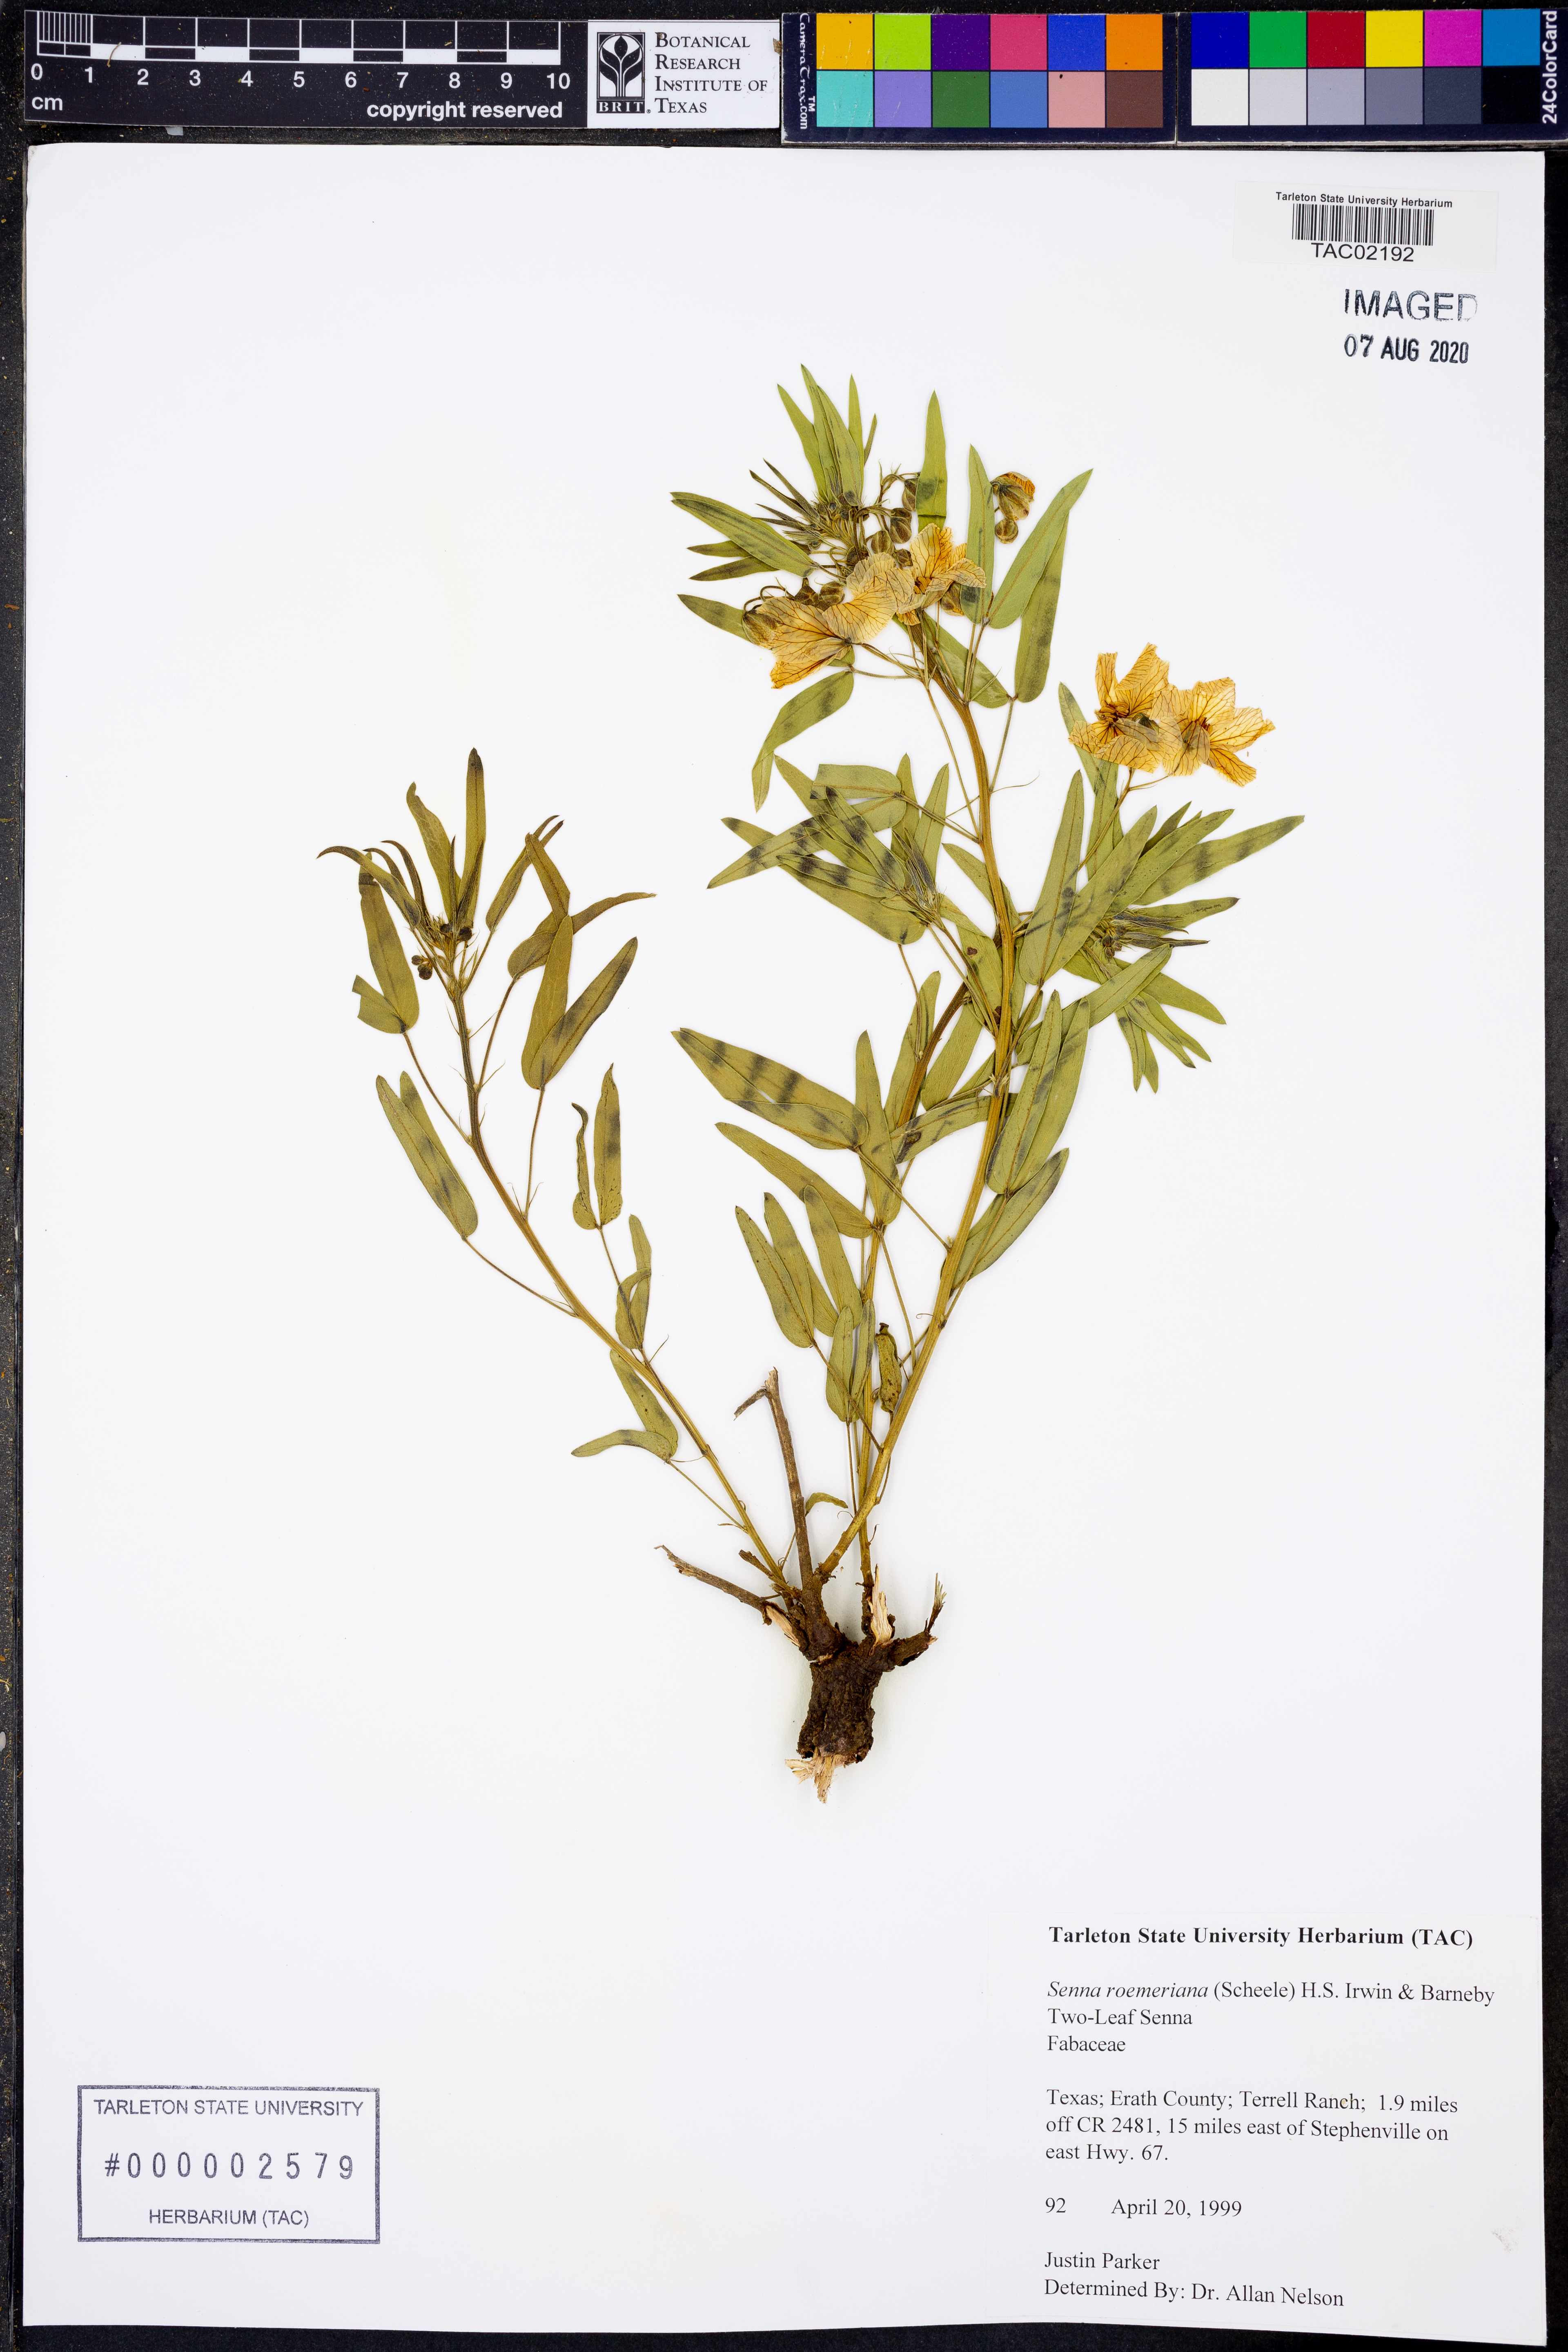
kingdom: Plantae
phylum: Tracheophyta
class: Magnoliopsida
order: Fabales
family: Fabaceae
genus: Senna
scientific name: Senna roemeriana
